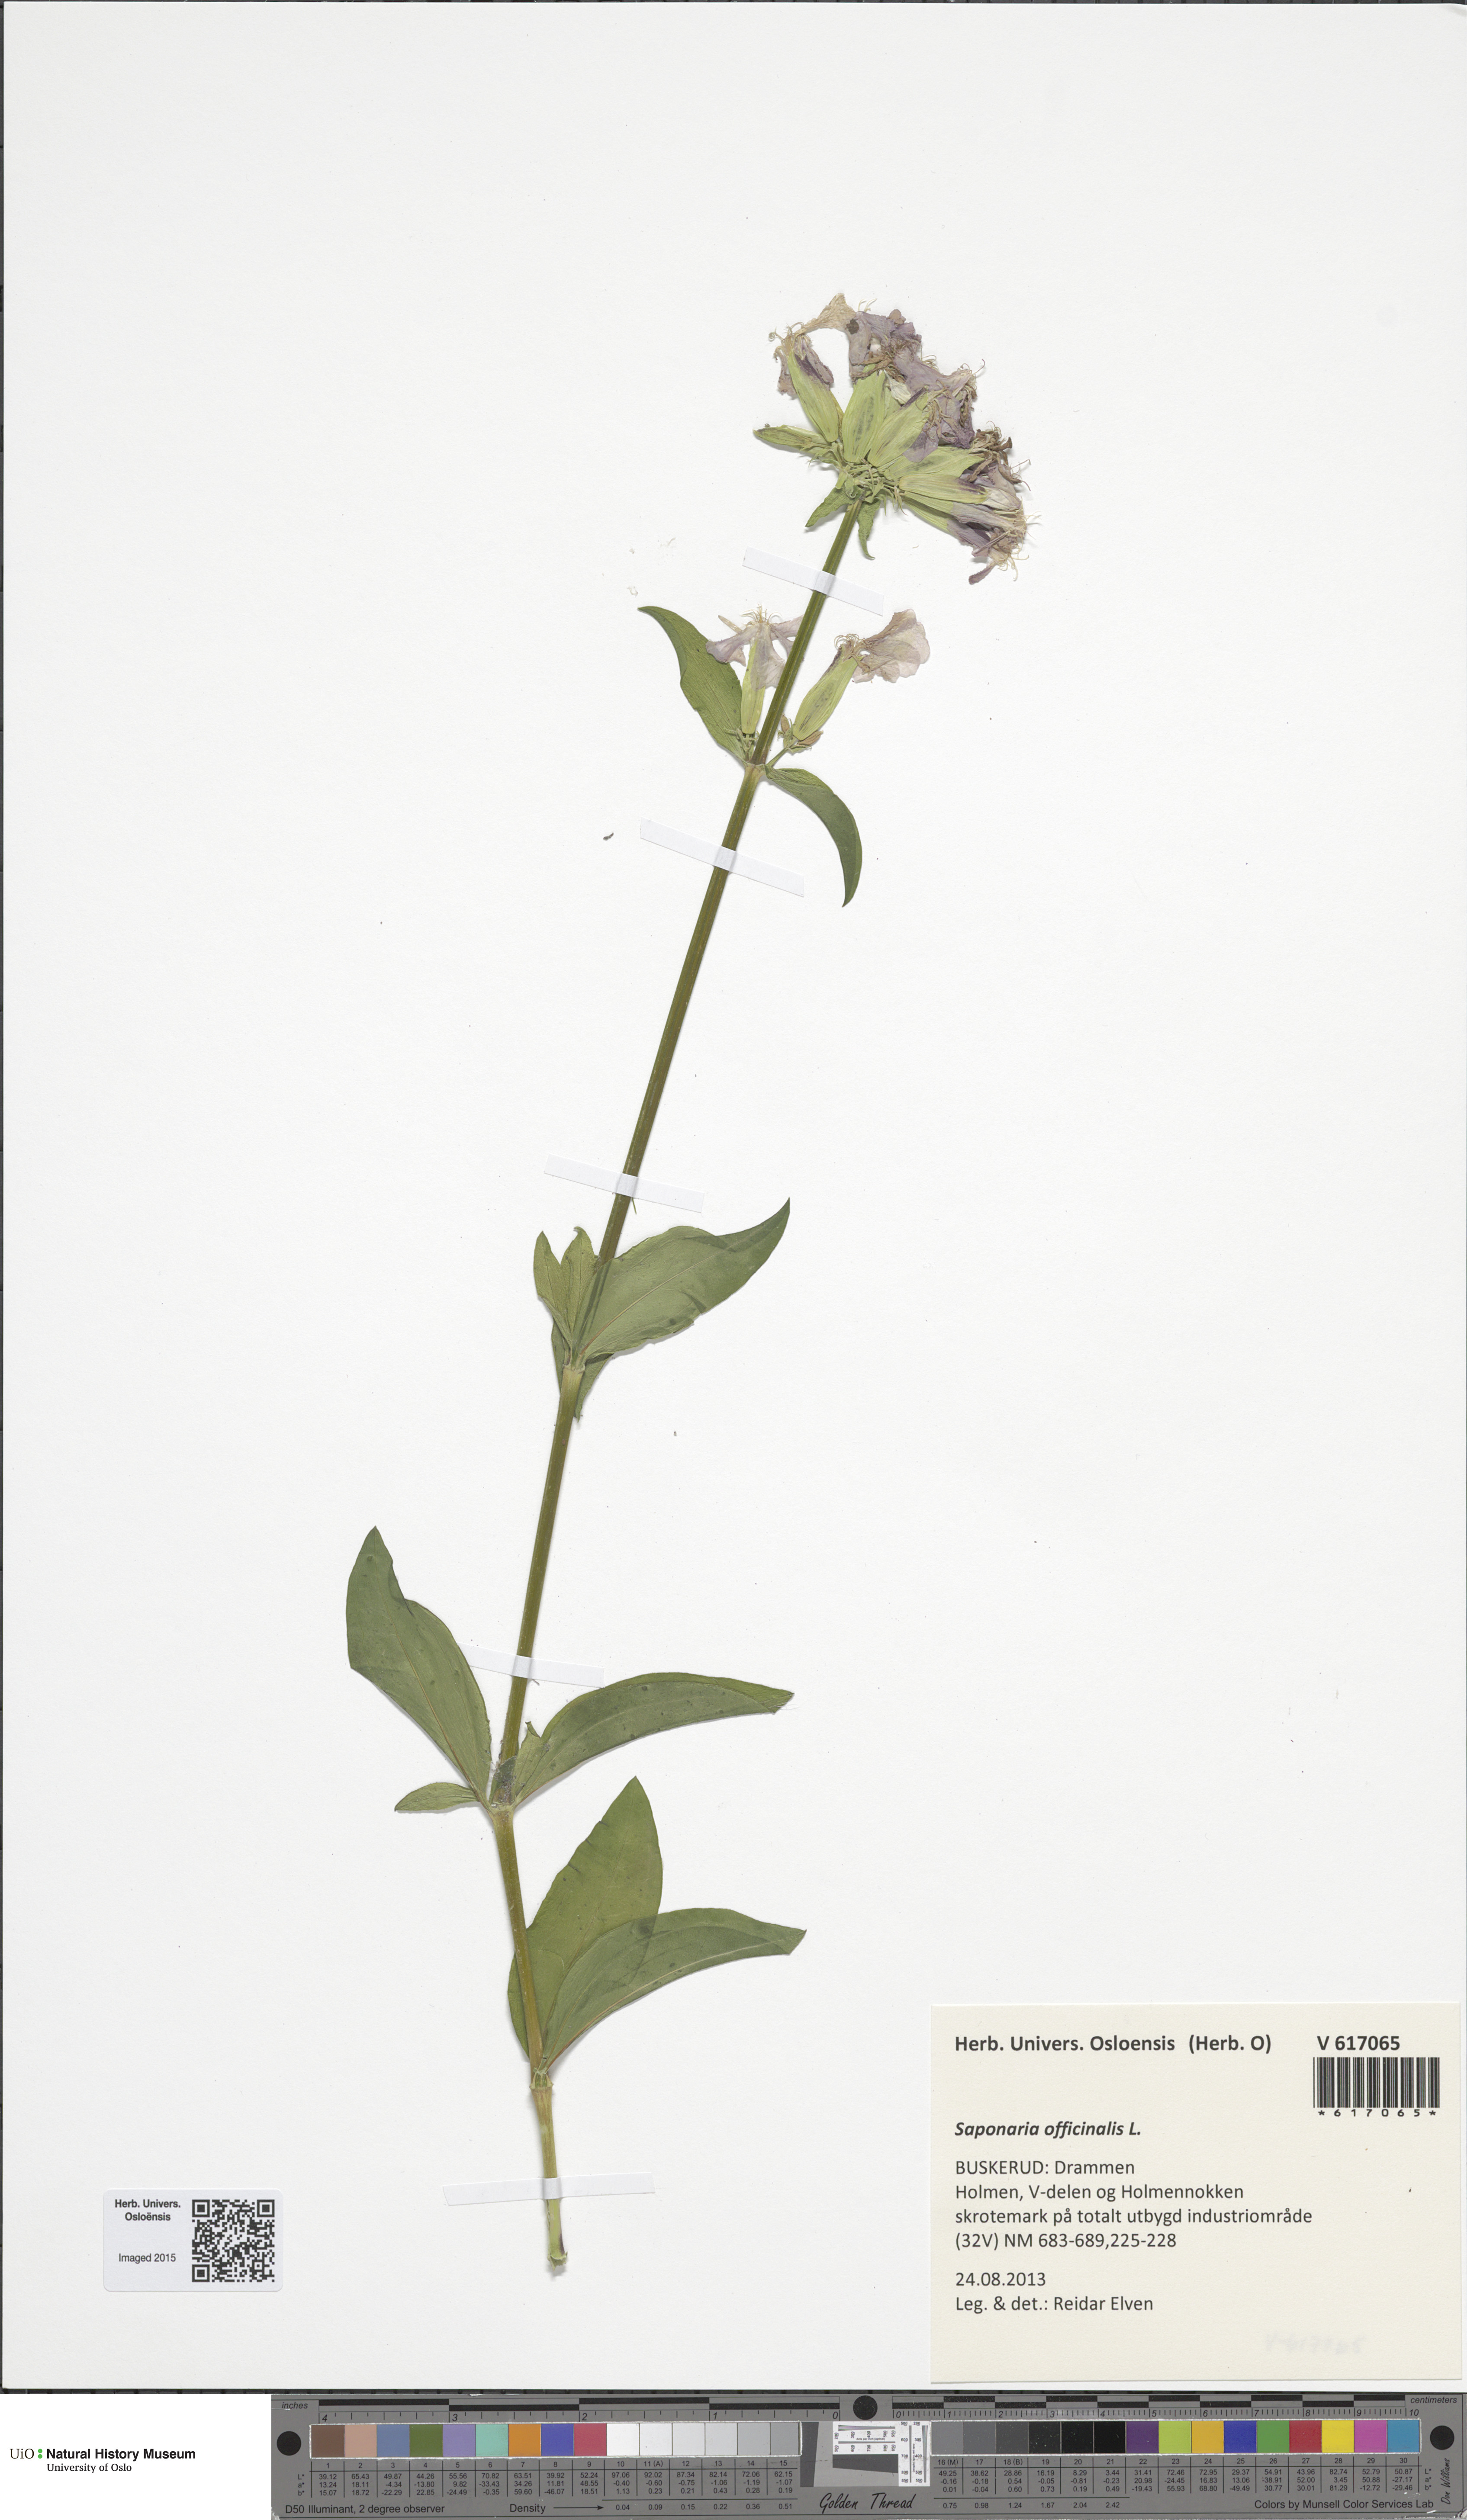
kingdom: Plantae
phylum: Tracheophyta
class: Magnoliopsida
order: Caryophyllales
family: Caryophyllaceae
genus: Saponaria
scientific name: Saponaria officinalis
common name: Soapwort
